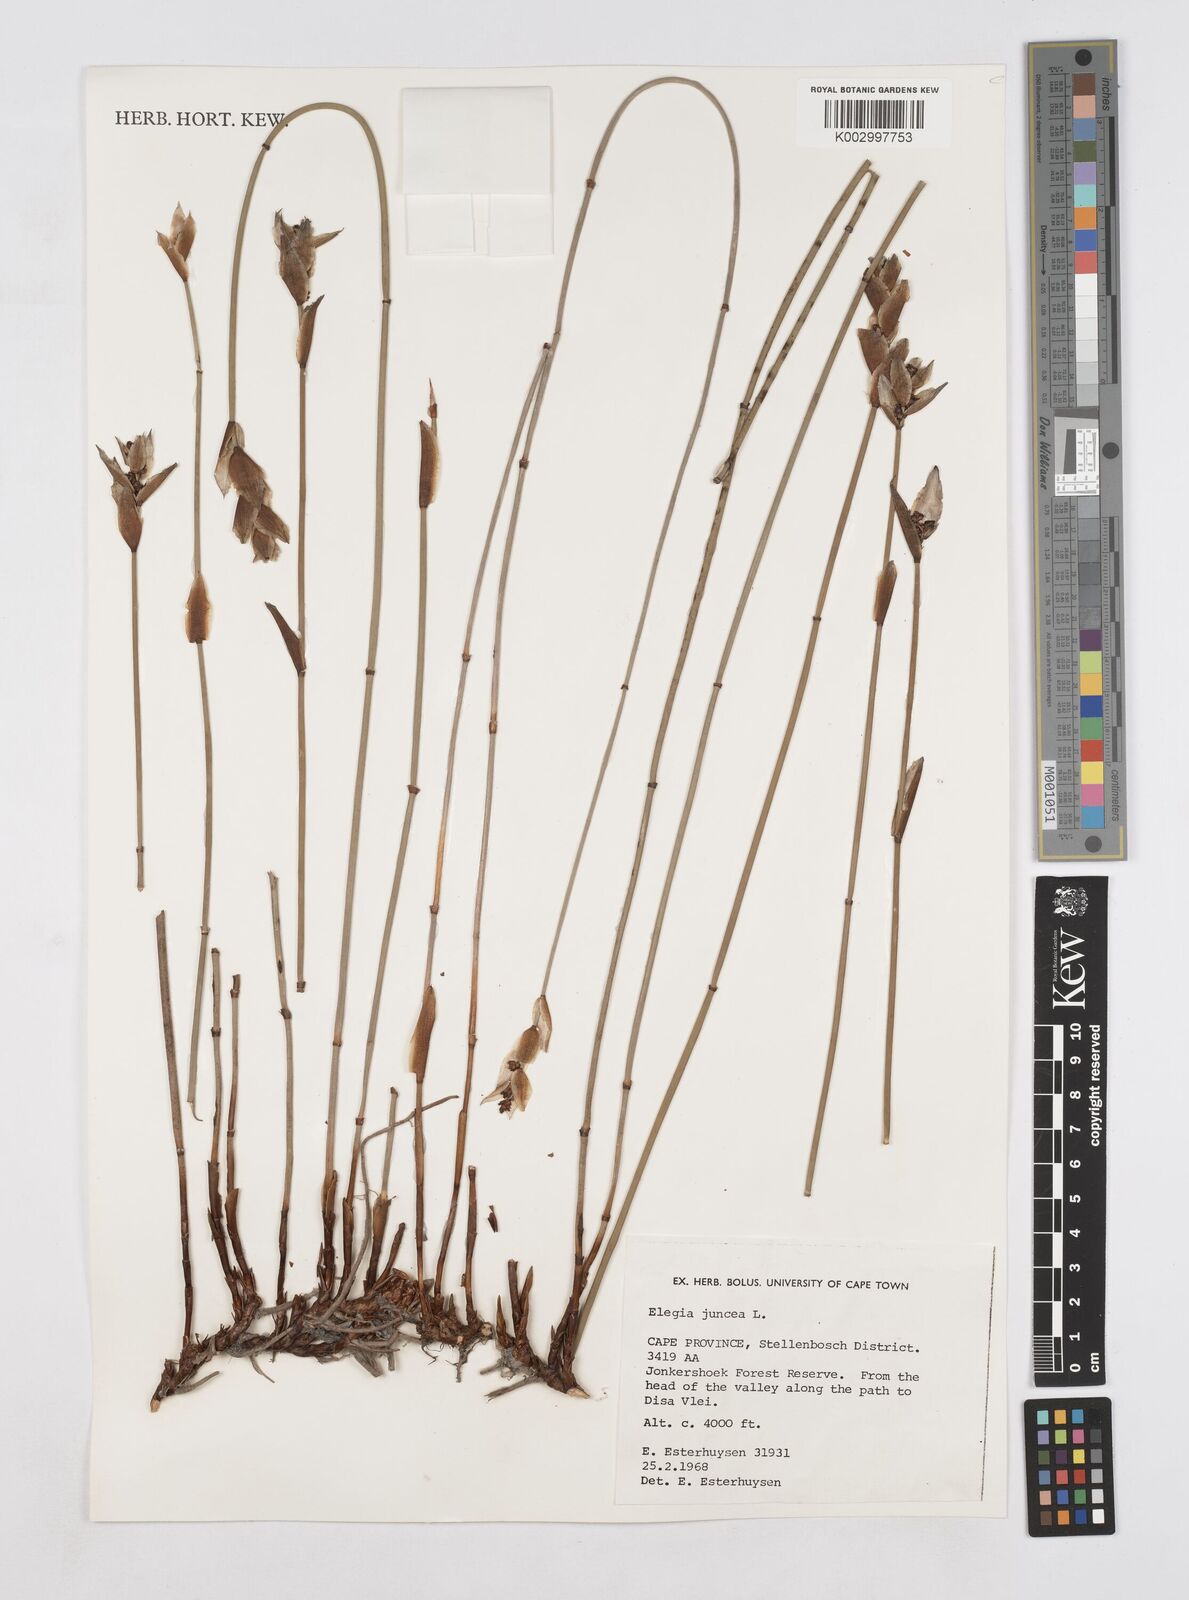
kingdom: Plantae
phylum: Tracheophyta
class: Liliopsida
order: Poales
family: Restionaceae
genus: Elegia
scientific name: Elegia juncea
